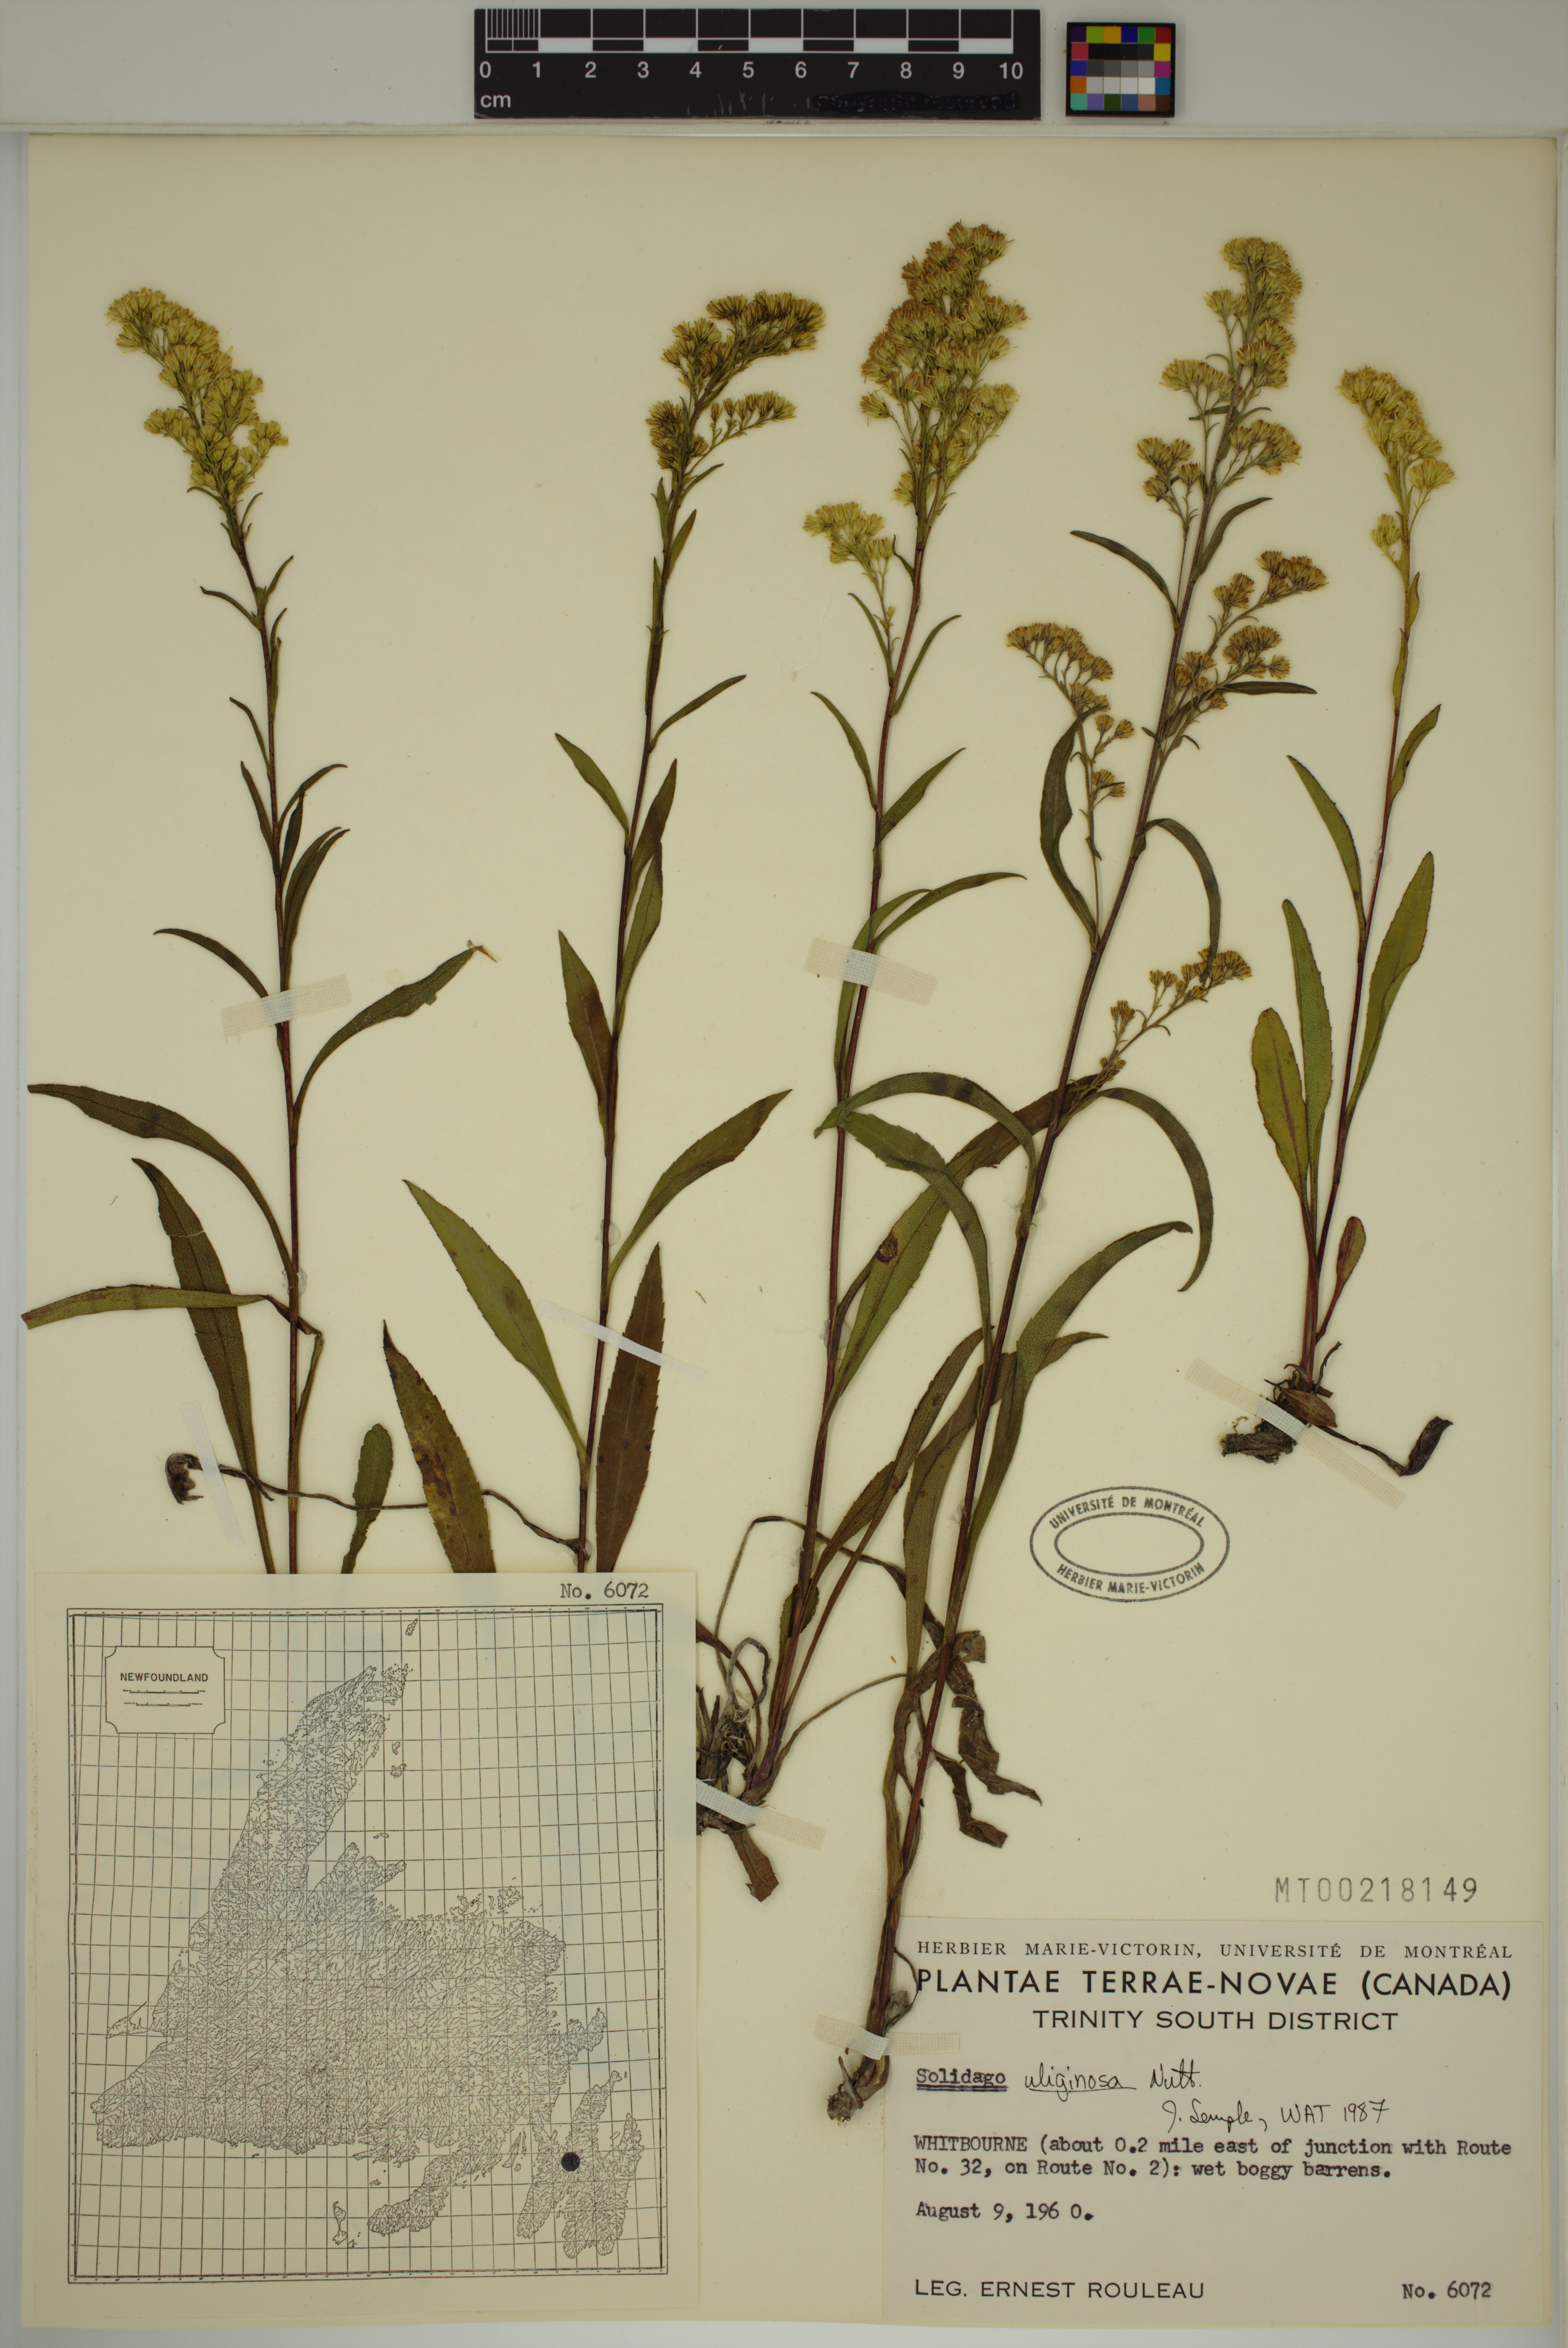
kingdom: Plantae
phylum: Tracheophyta
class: Magnoliopsida
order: Asterales
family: Asteraceae
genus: Solidago
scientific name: Solidago uliginosa
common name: Bog goldenrod
